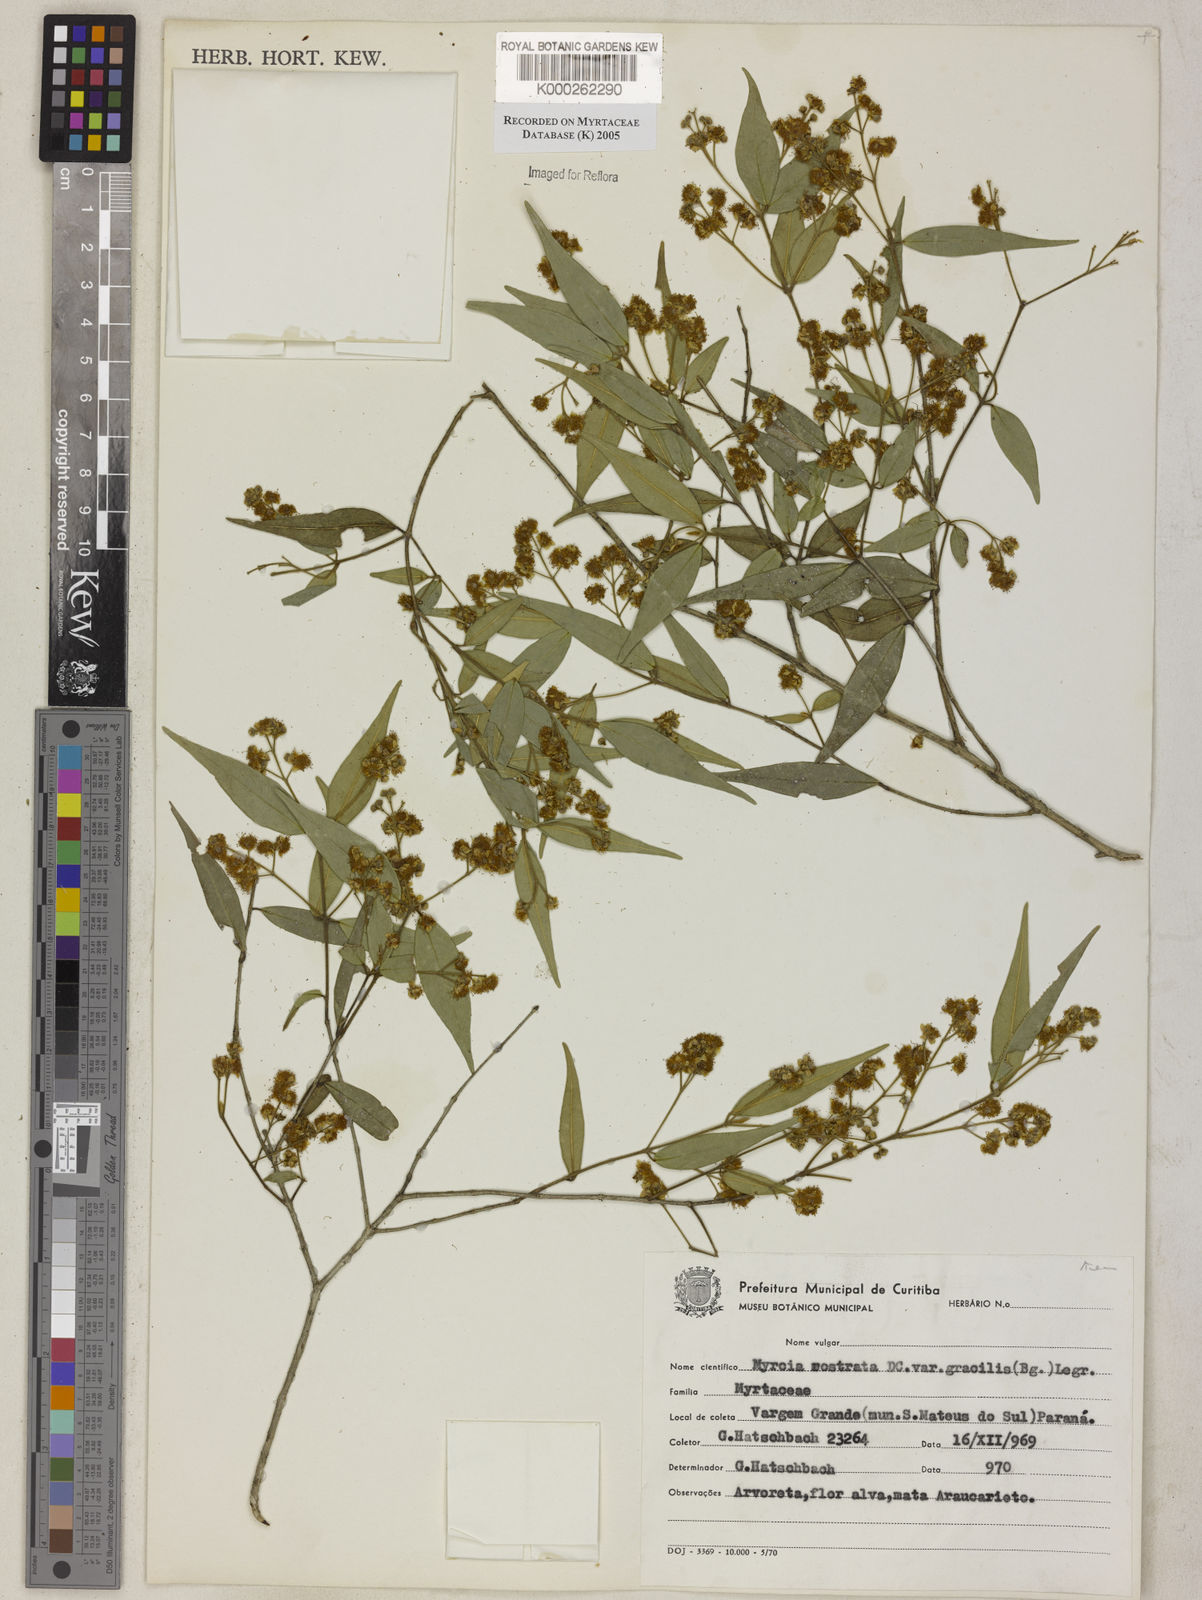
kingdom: Plantae
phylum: Tracheophyta
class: Magnoliopsida
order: Myrtales
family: Myrtaceae
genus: Myrcia
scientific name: Myrcia splendens
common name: Surinam cherry
